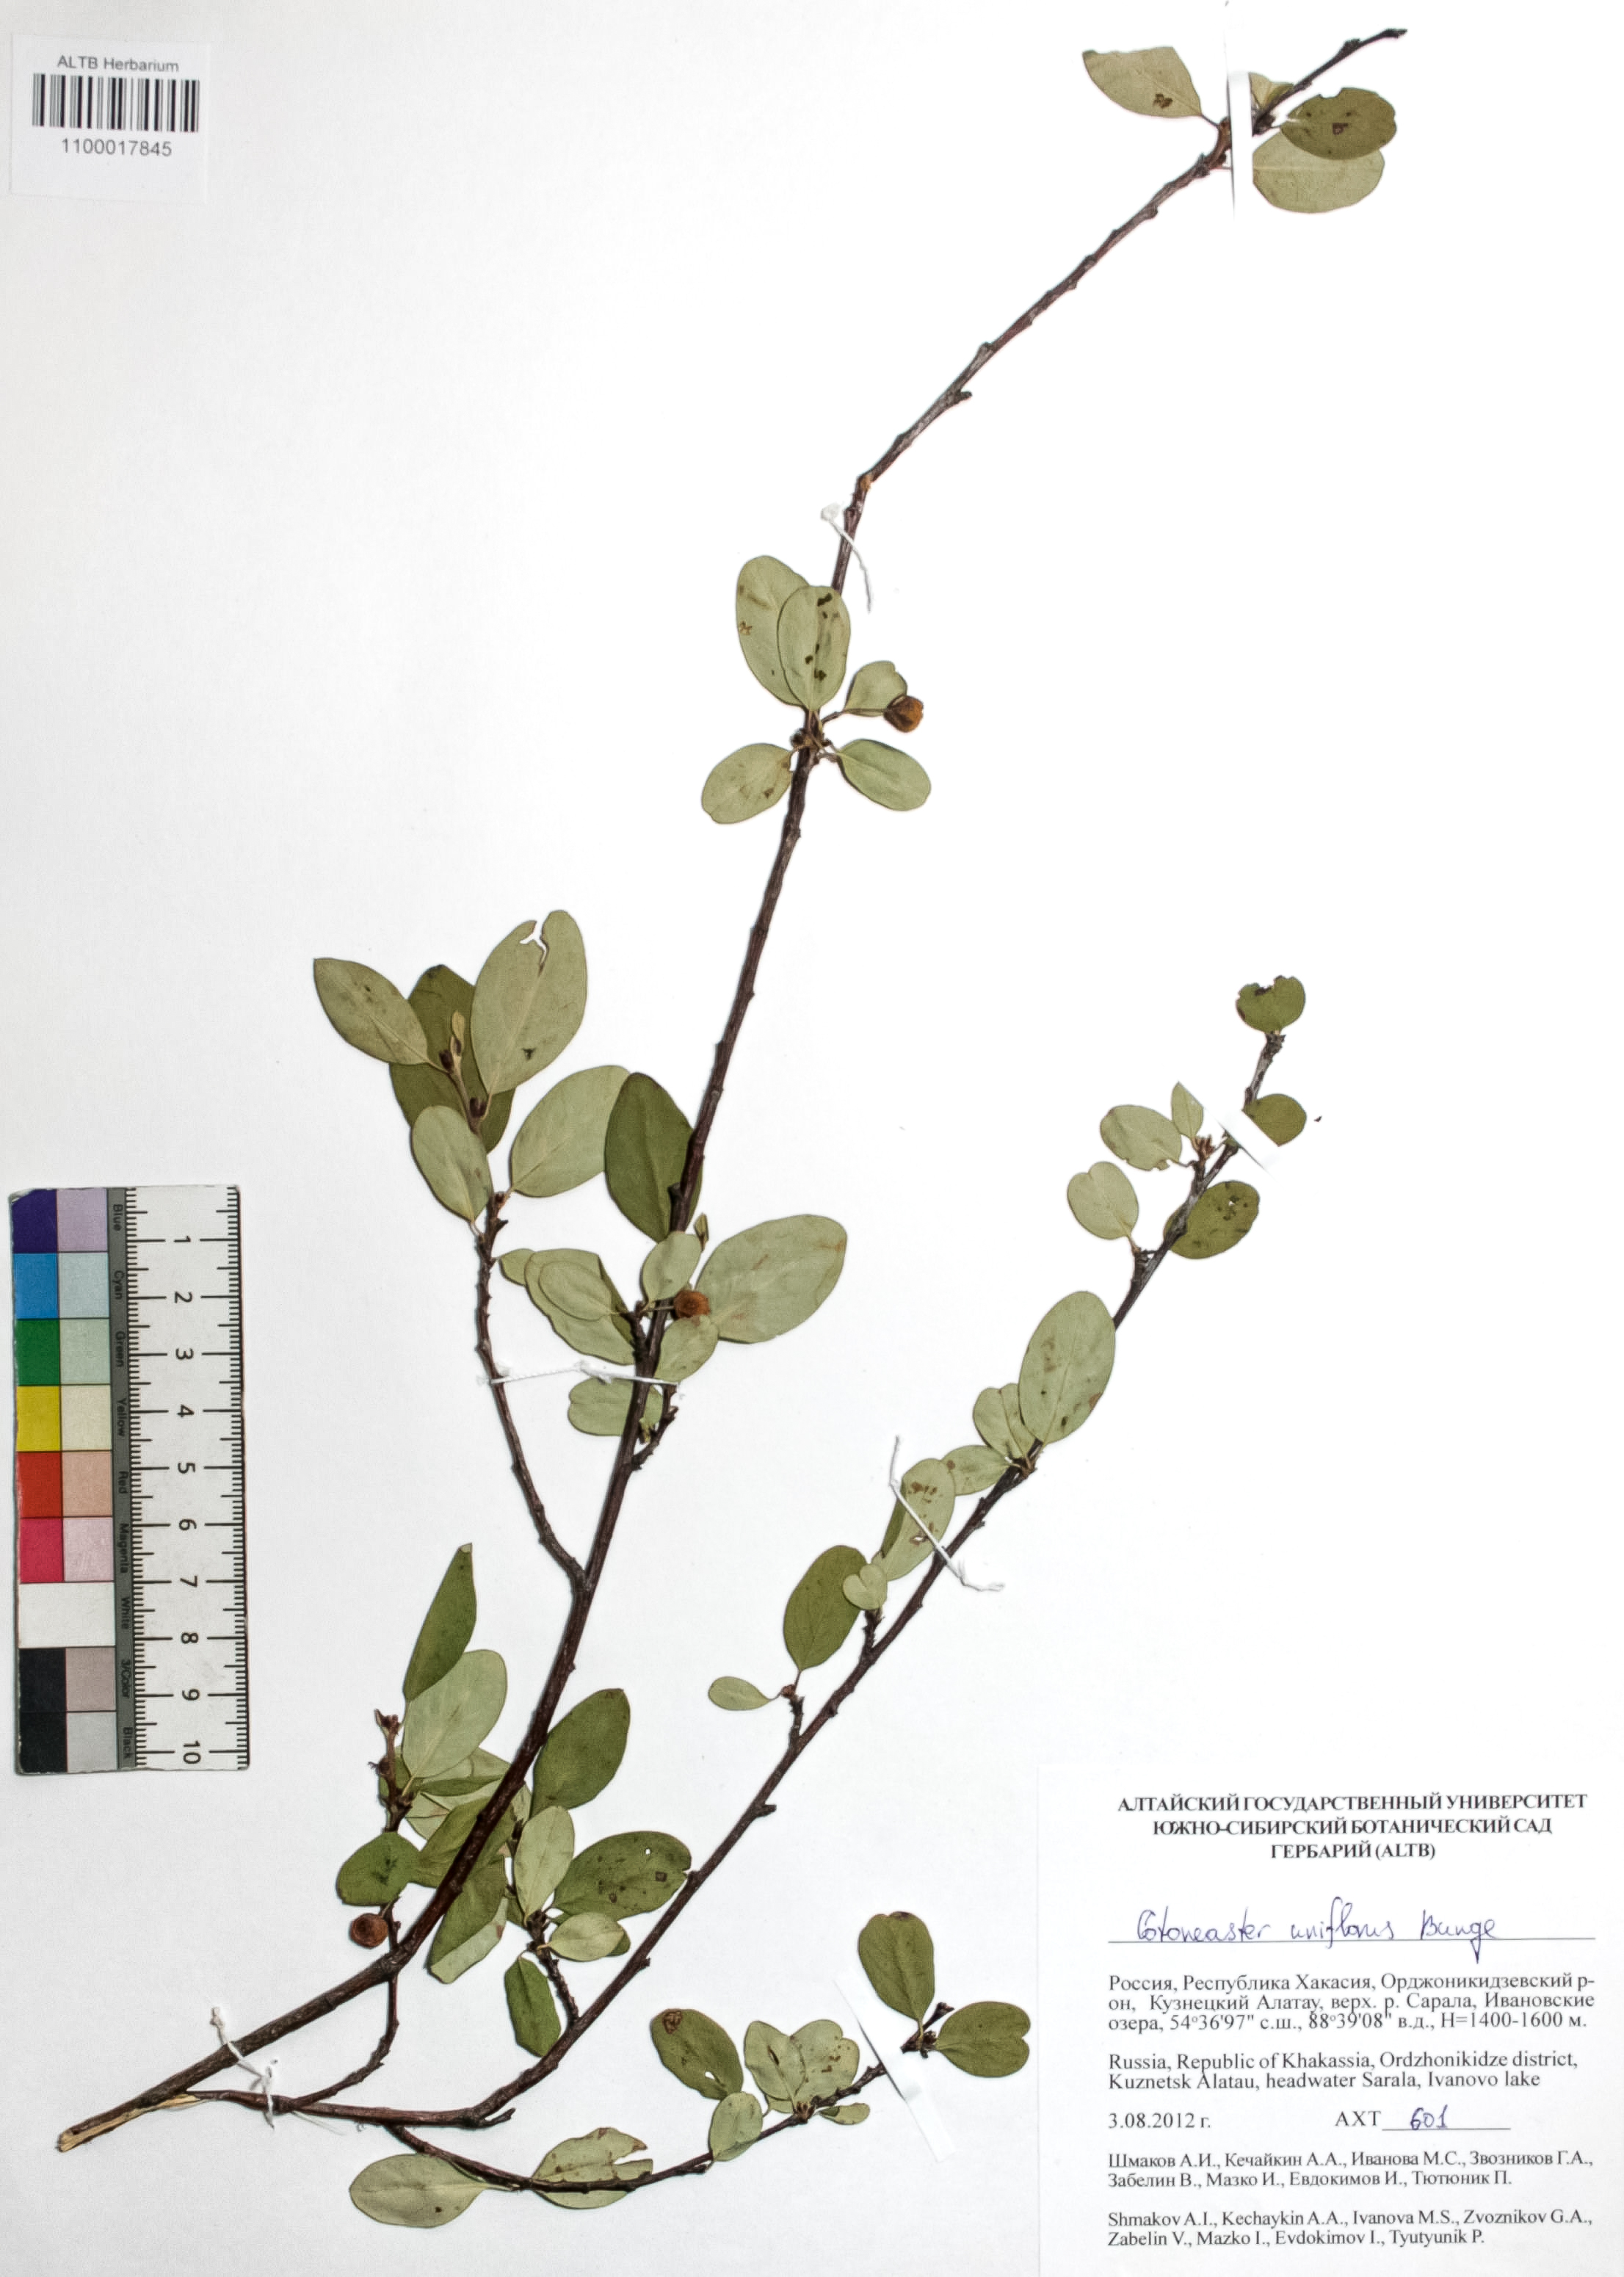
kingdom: Plantae
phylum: Tracheophyta
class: Magnoliopsida
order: Rosales
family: Rosaceae
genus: Cotoneaster
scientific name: Cotoneaster uniflorus
